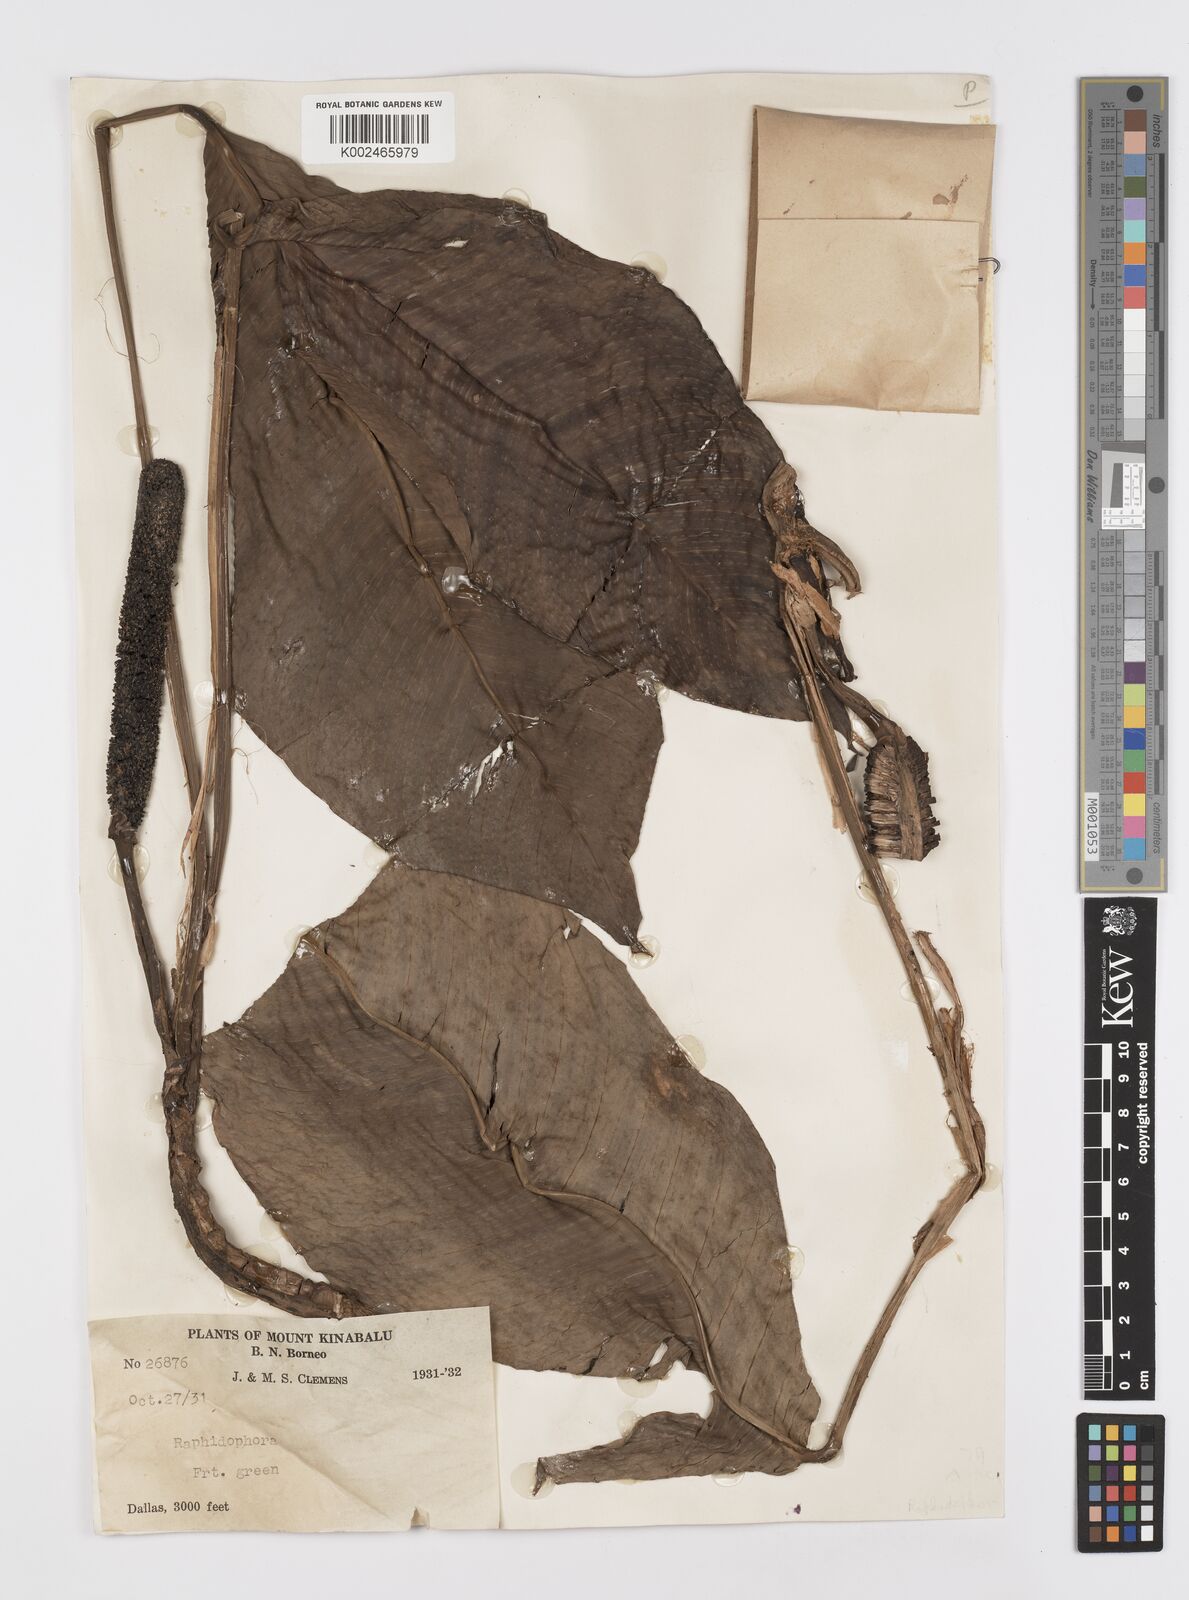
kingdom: Plantae
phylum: Tracheophyta
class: Liliopsida
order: Alismatales
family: Araceae
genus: Rhaphidophora
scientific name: Rhaphidophora puberula
